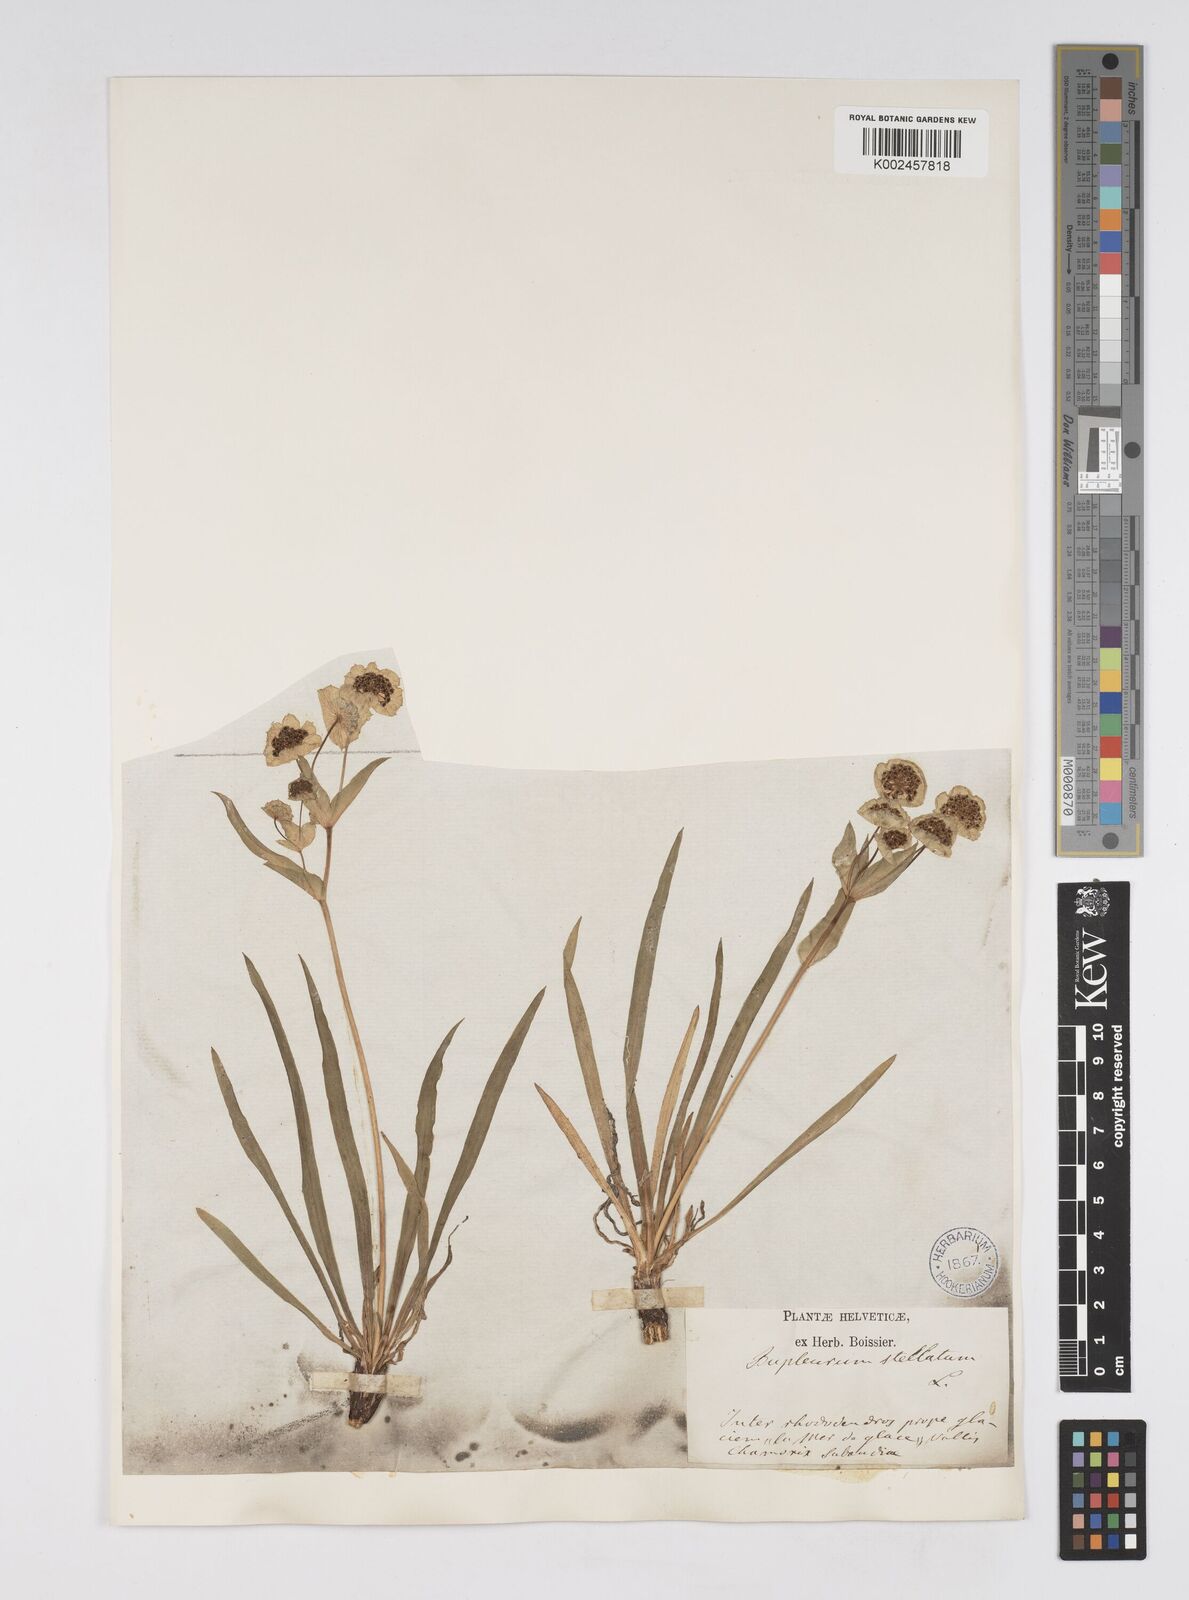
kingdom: Plantae
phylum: Tracheophyta
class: Magnoliopsida
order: Apiales
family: Apiaceae
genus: Bupleurum
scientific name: Bupleurum stellatum
